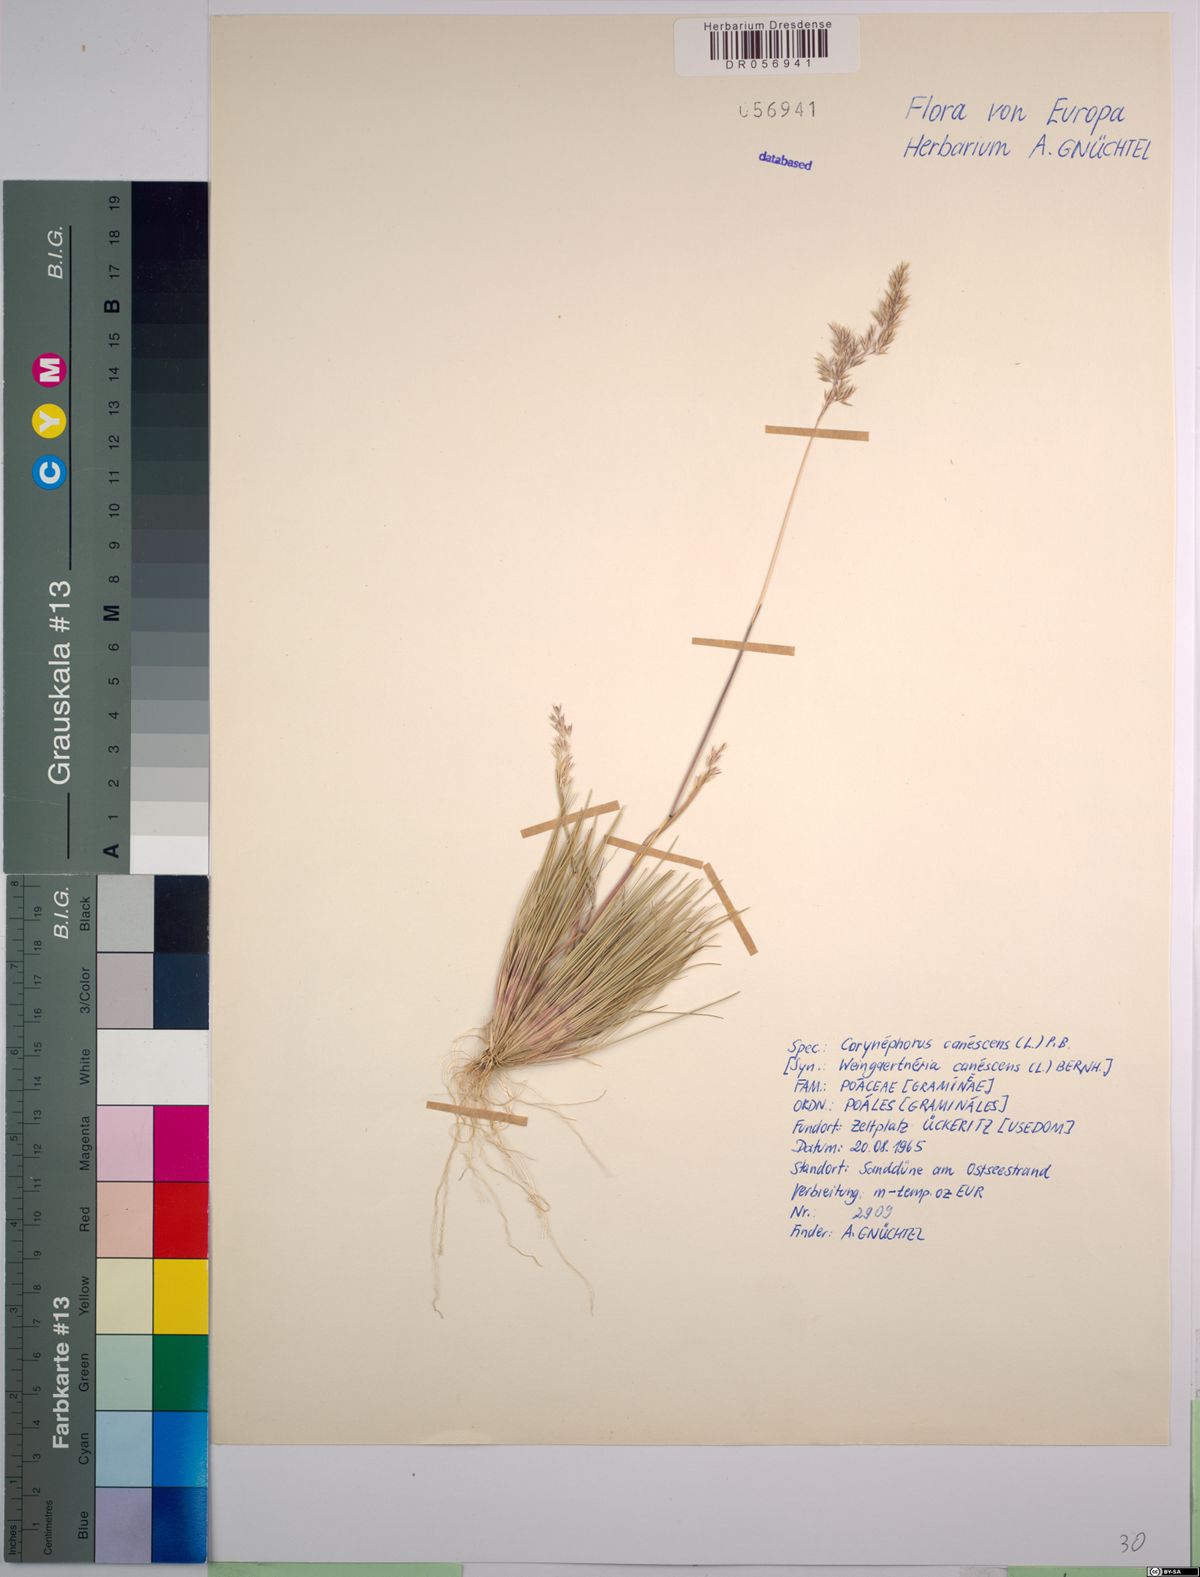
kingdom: Plantae
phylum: Tracheophyta
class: Liliopsida
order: Poales
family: Poaceae
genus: Corynephorus
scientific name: Corynephorus canescens
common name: Grey hair-grass
